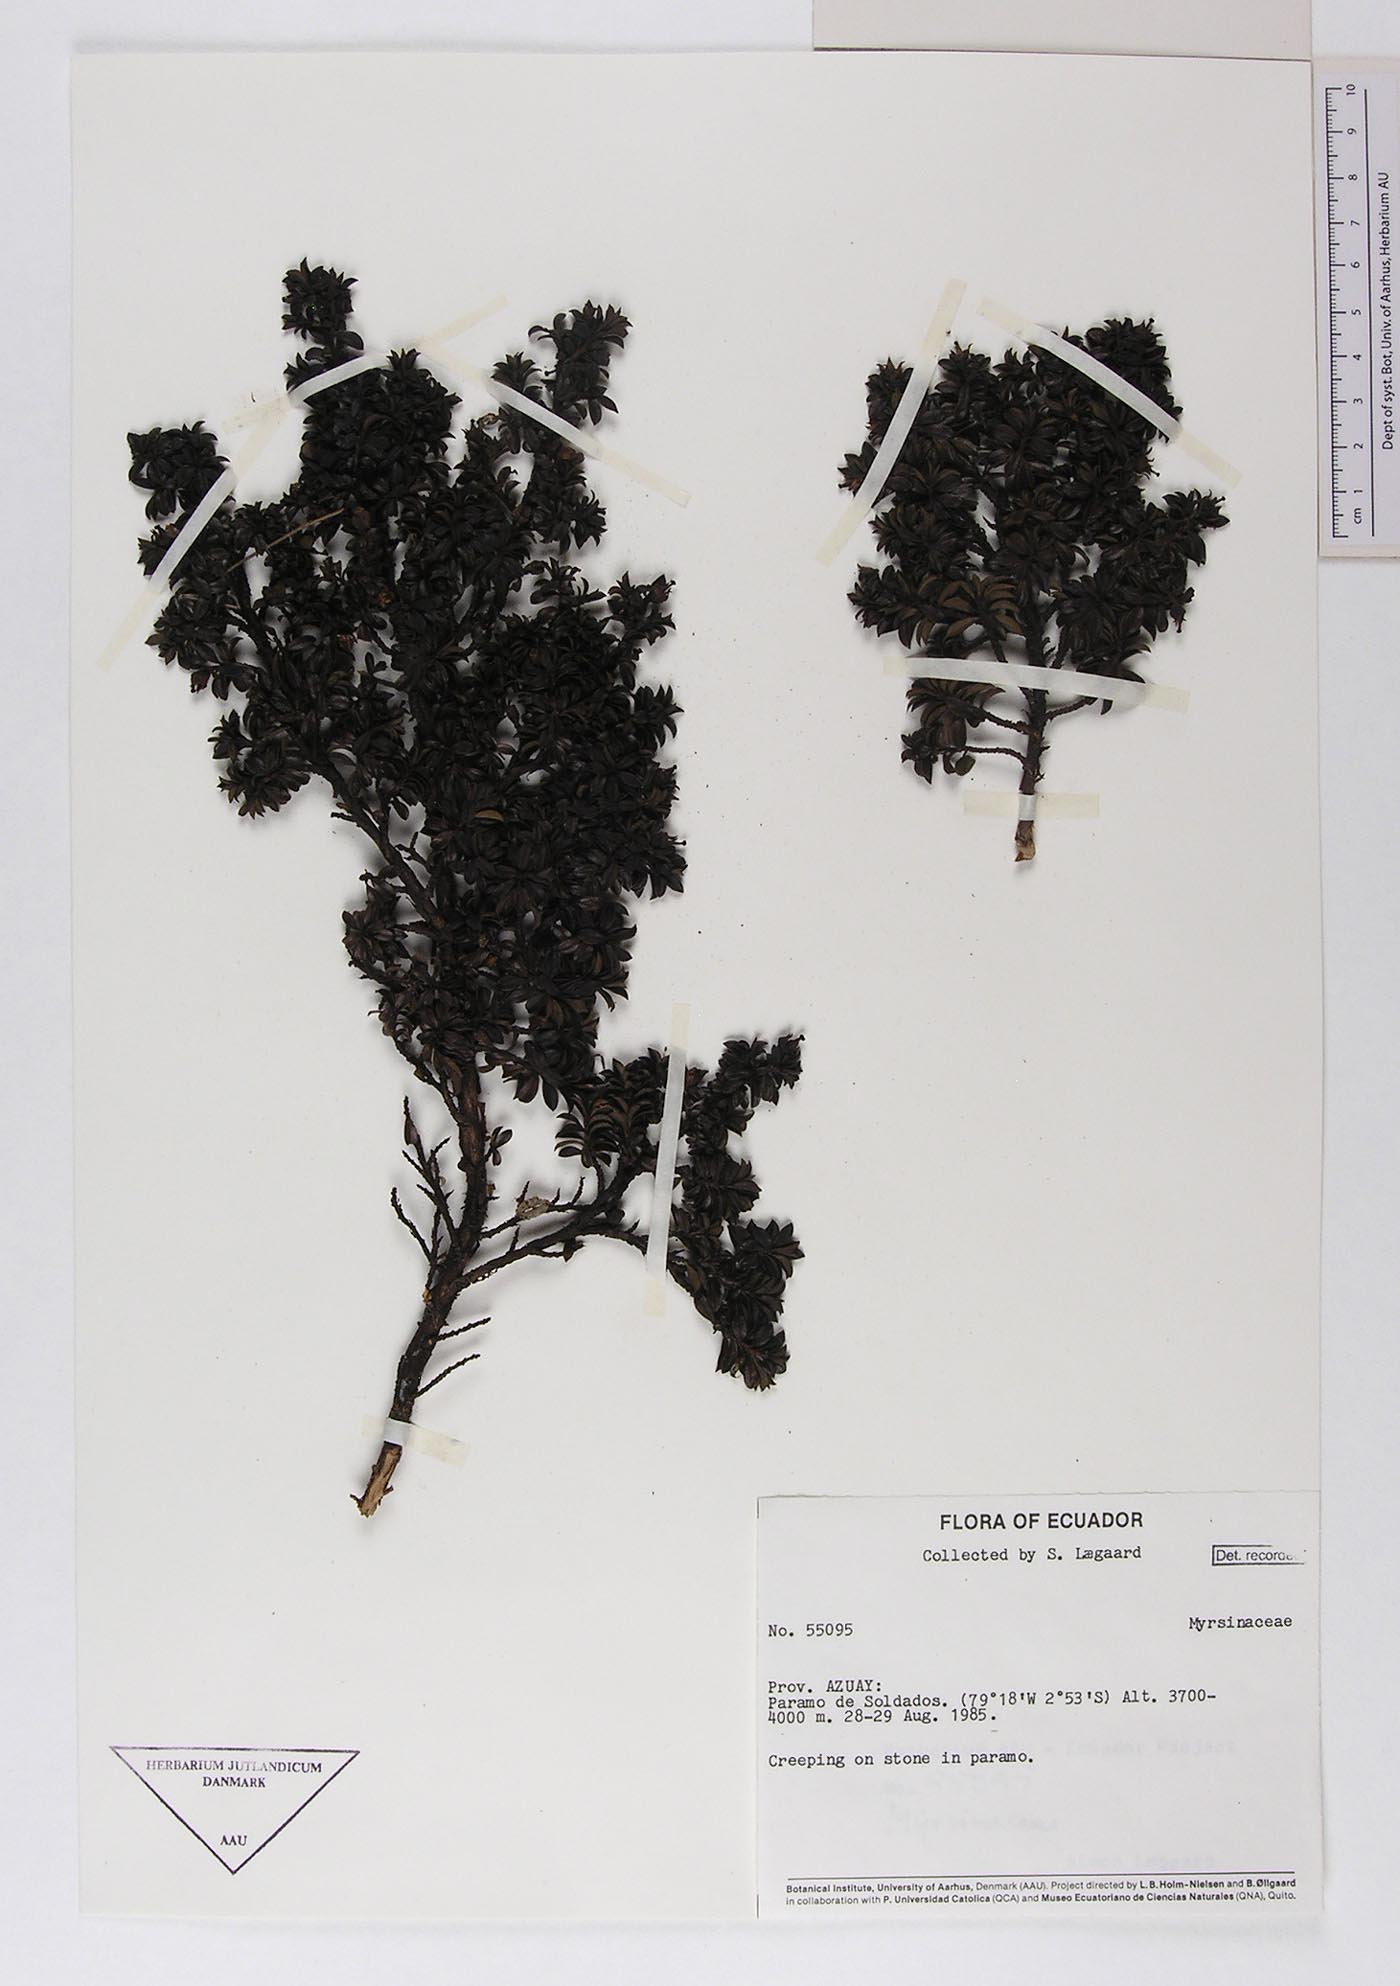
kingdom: Plantae
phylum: Tracheophyta
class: Magnoliopsida
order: Ericales
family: Primulaceae
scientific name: Primulaceae
